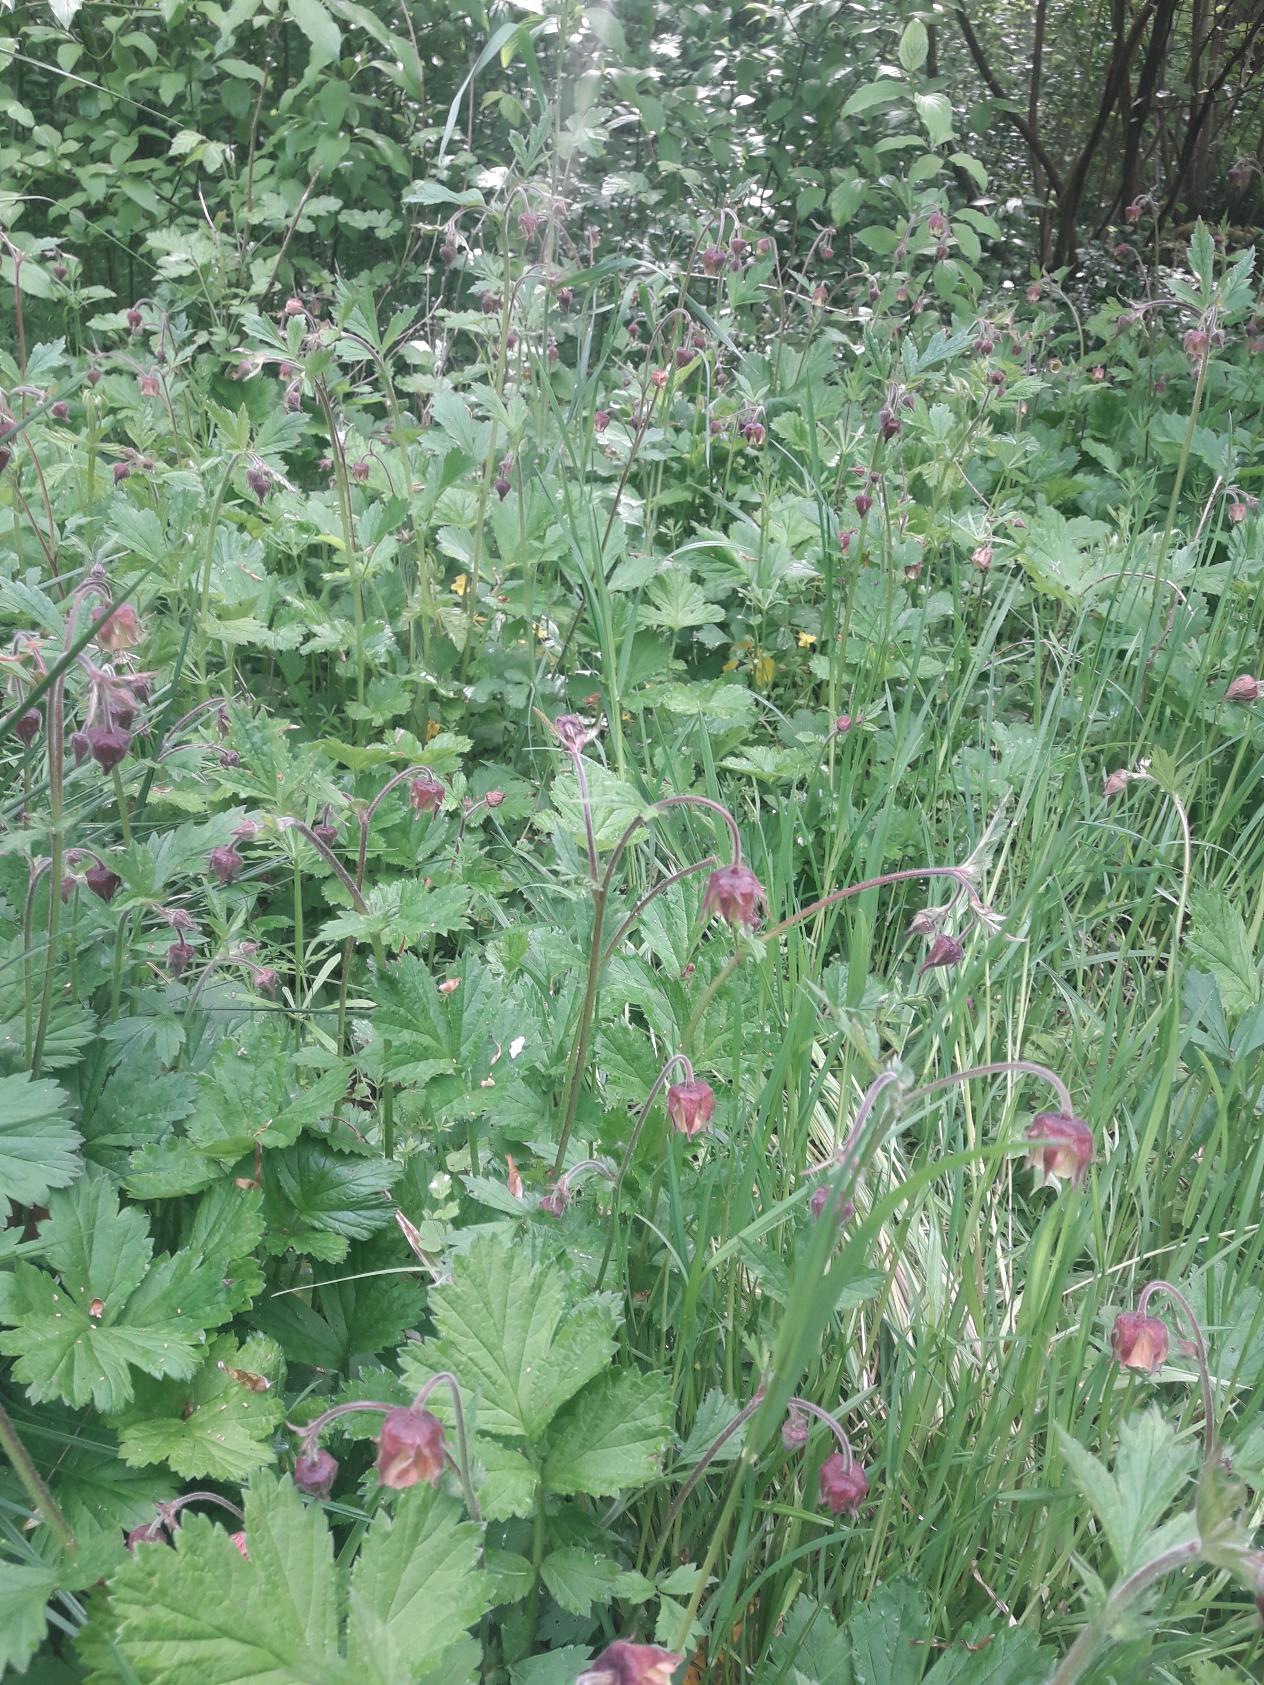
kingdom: Plantae
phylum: Tracheophyta
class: Magnoliopsida
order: Rosales
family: Rosaceae
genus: Geum
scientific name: Geum rivale
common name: Eng-nellikerod
